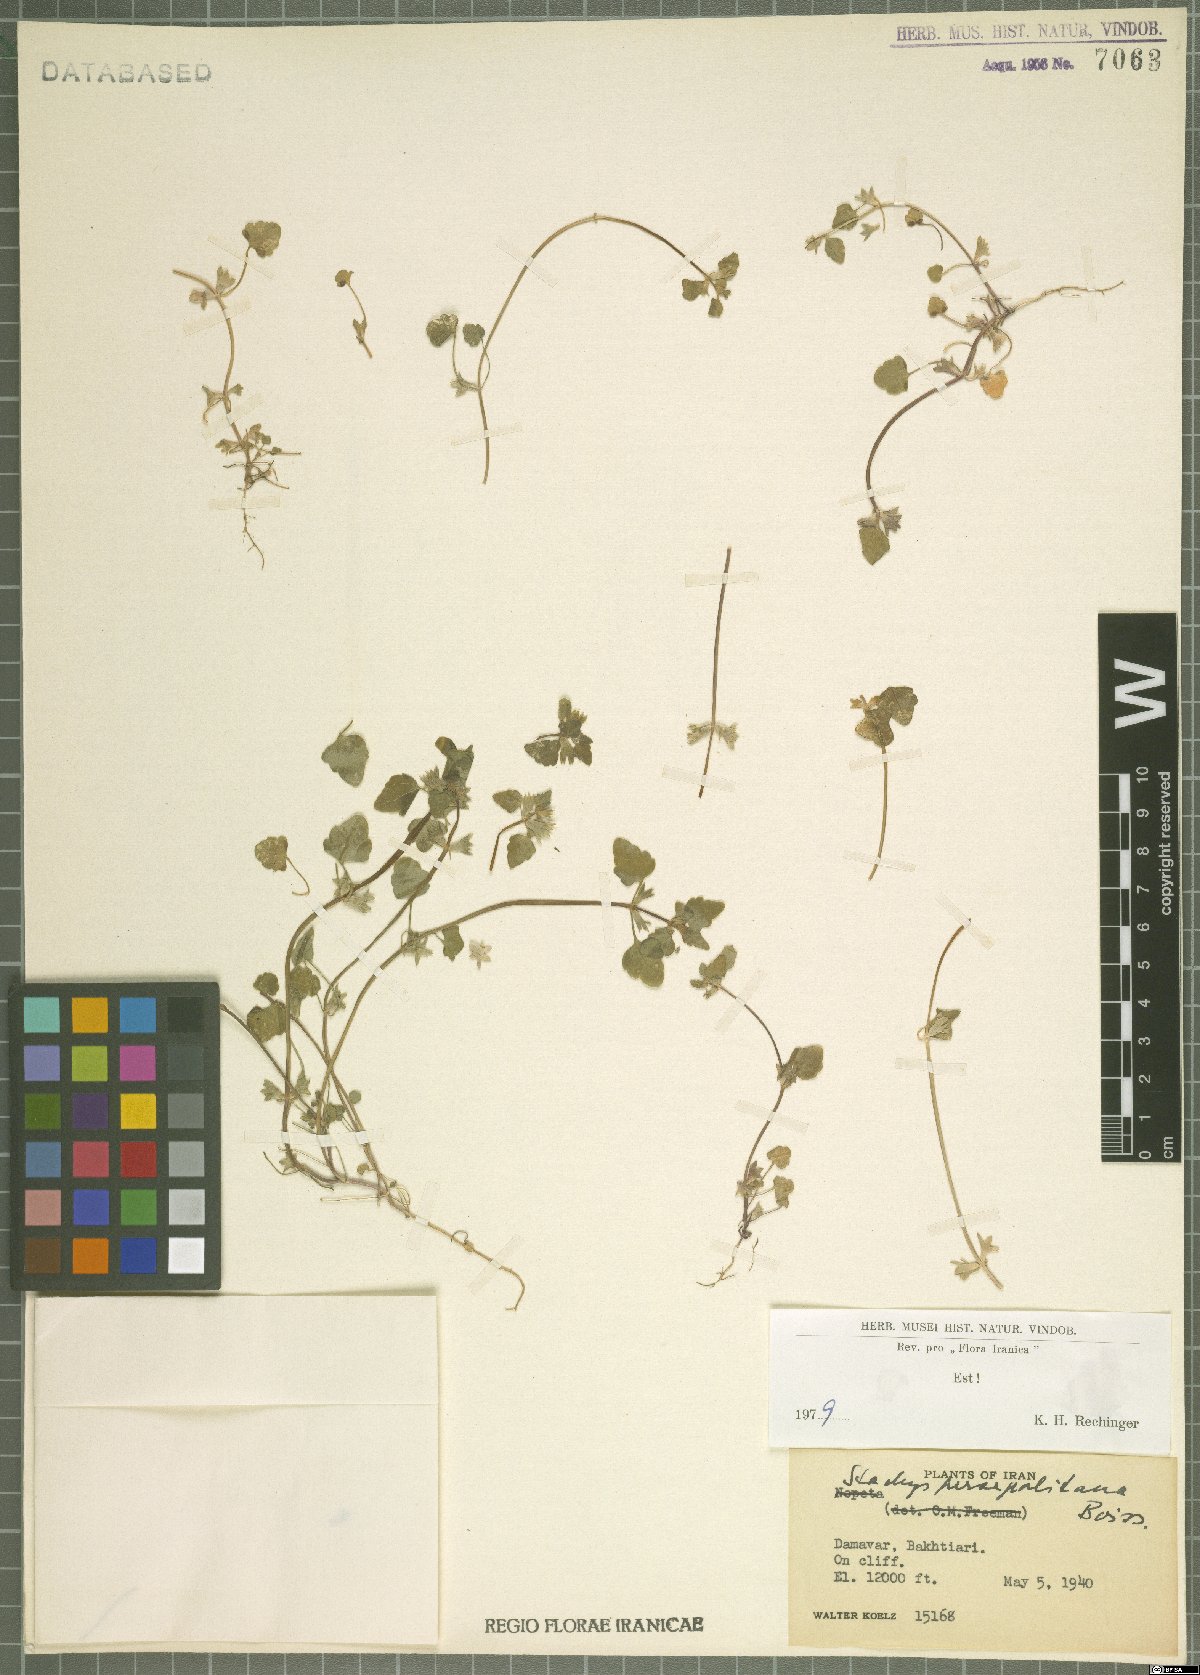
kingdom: Plantae
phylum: Tracheophyta
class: Magnoliopsida
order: Lamiales
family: Lamiaceae
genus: Lamium
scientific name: Lamium persepolitanum
